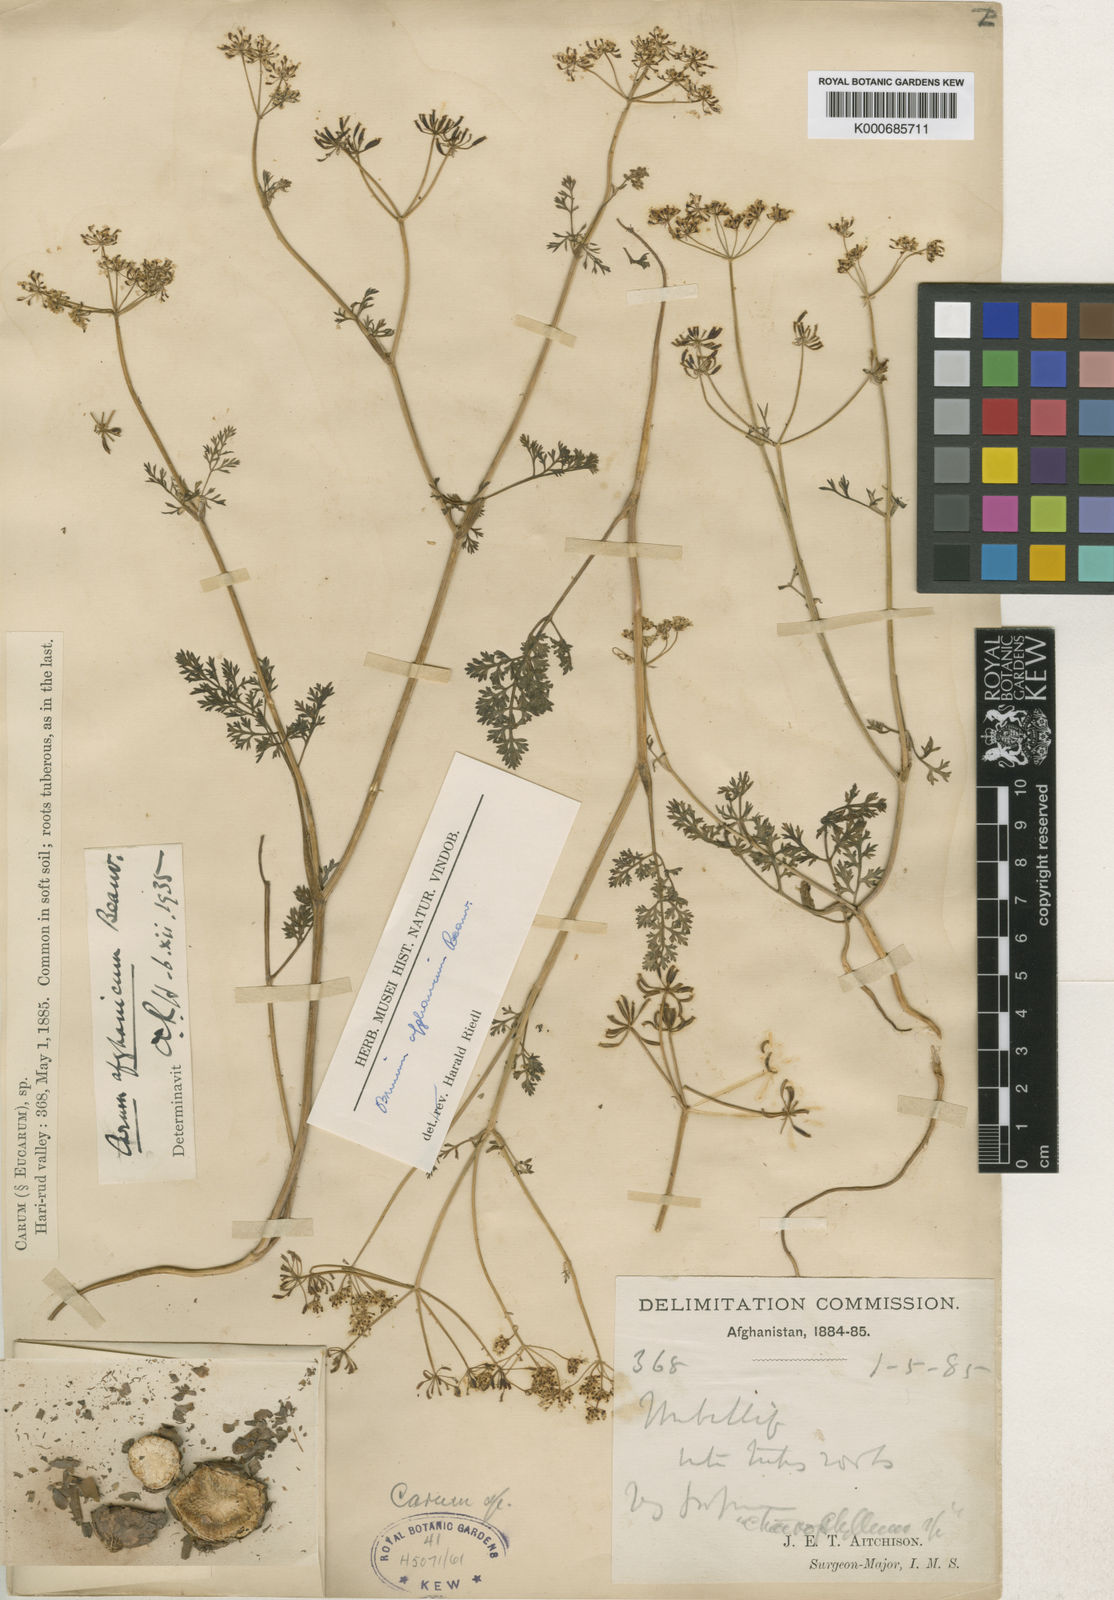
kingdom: Plantae
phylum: Tracheophyta
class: Magnoliopsida
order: Apiales
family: Apiaceae
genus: Elwendia
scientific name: Elwendia afghanica
